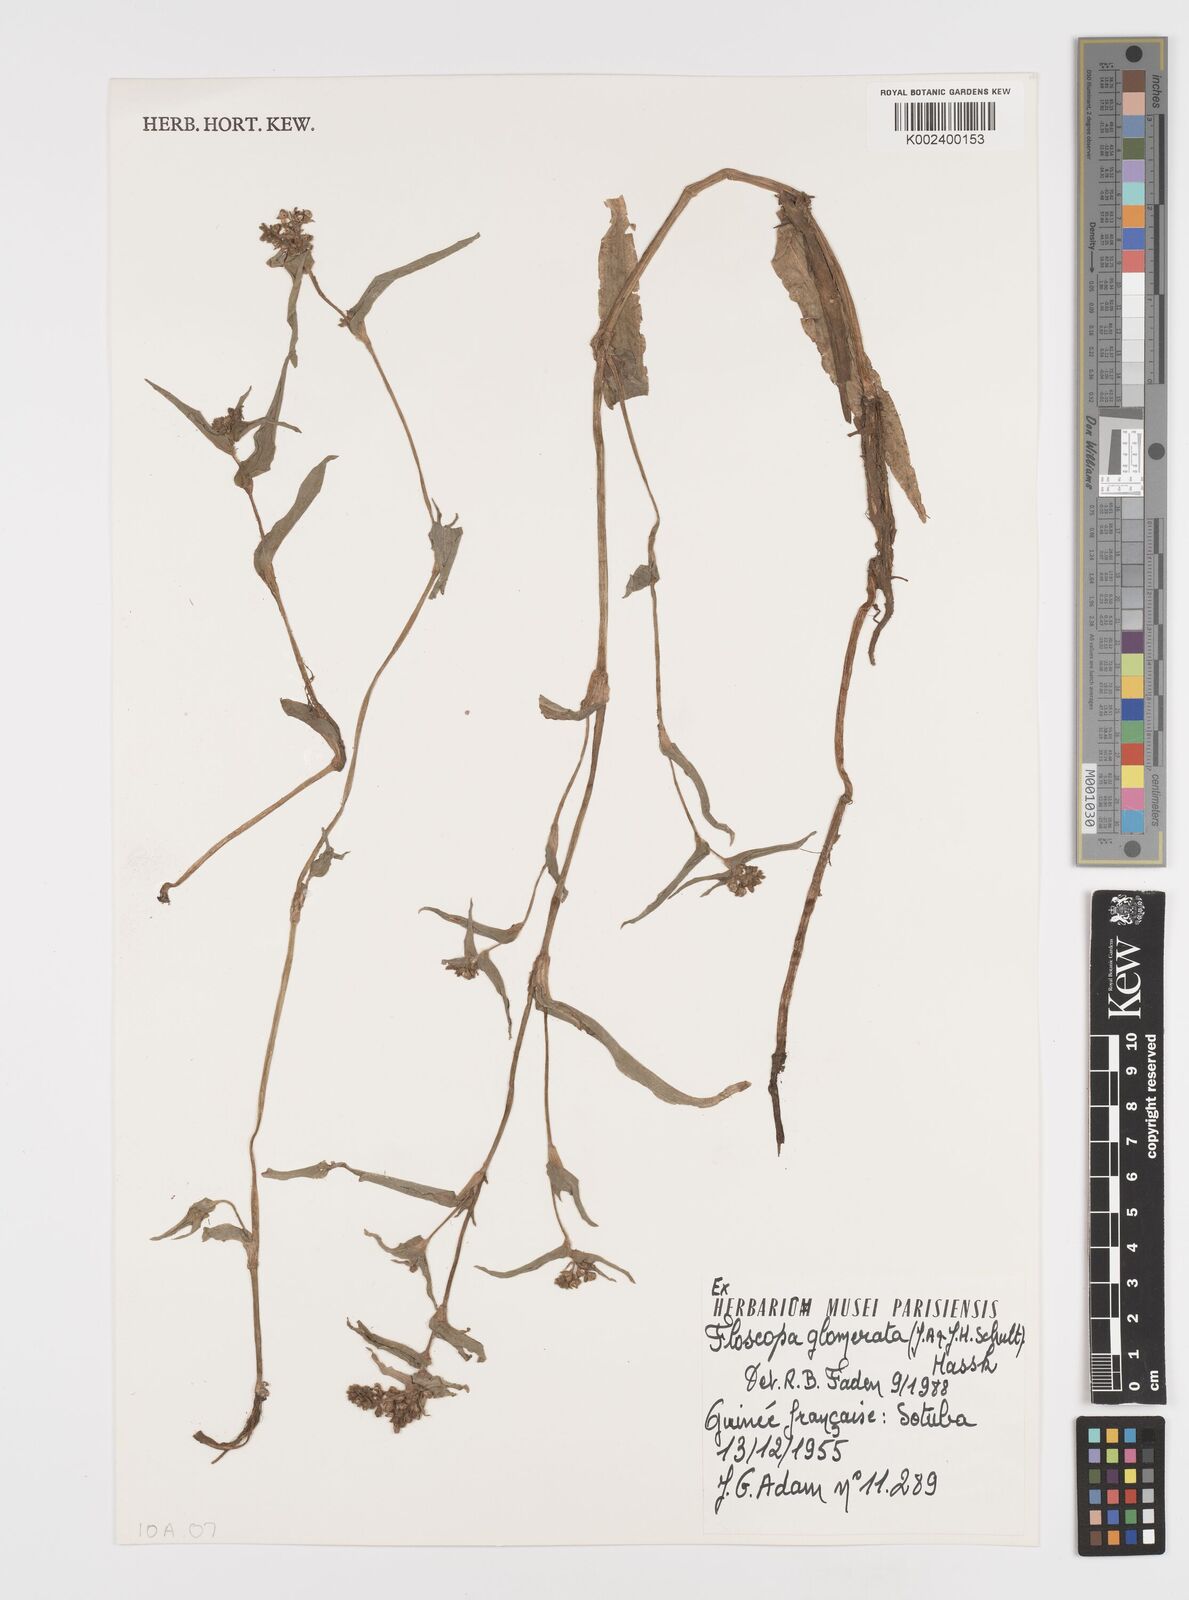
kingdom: Plantae
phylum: Tracheophyta
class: Liliopsida
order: Commelinales
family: Commelinaceae
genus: Floscopa
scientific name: Floscopa glomerata
